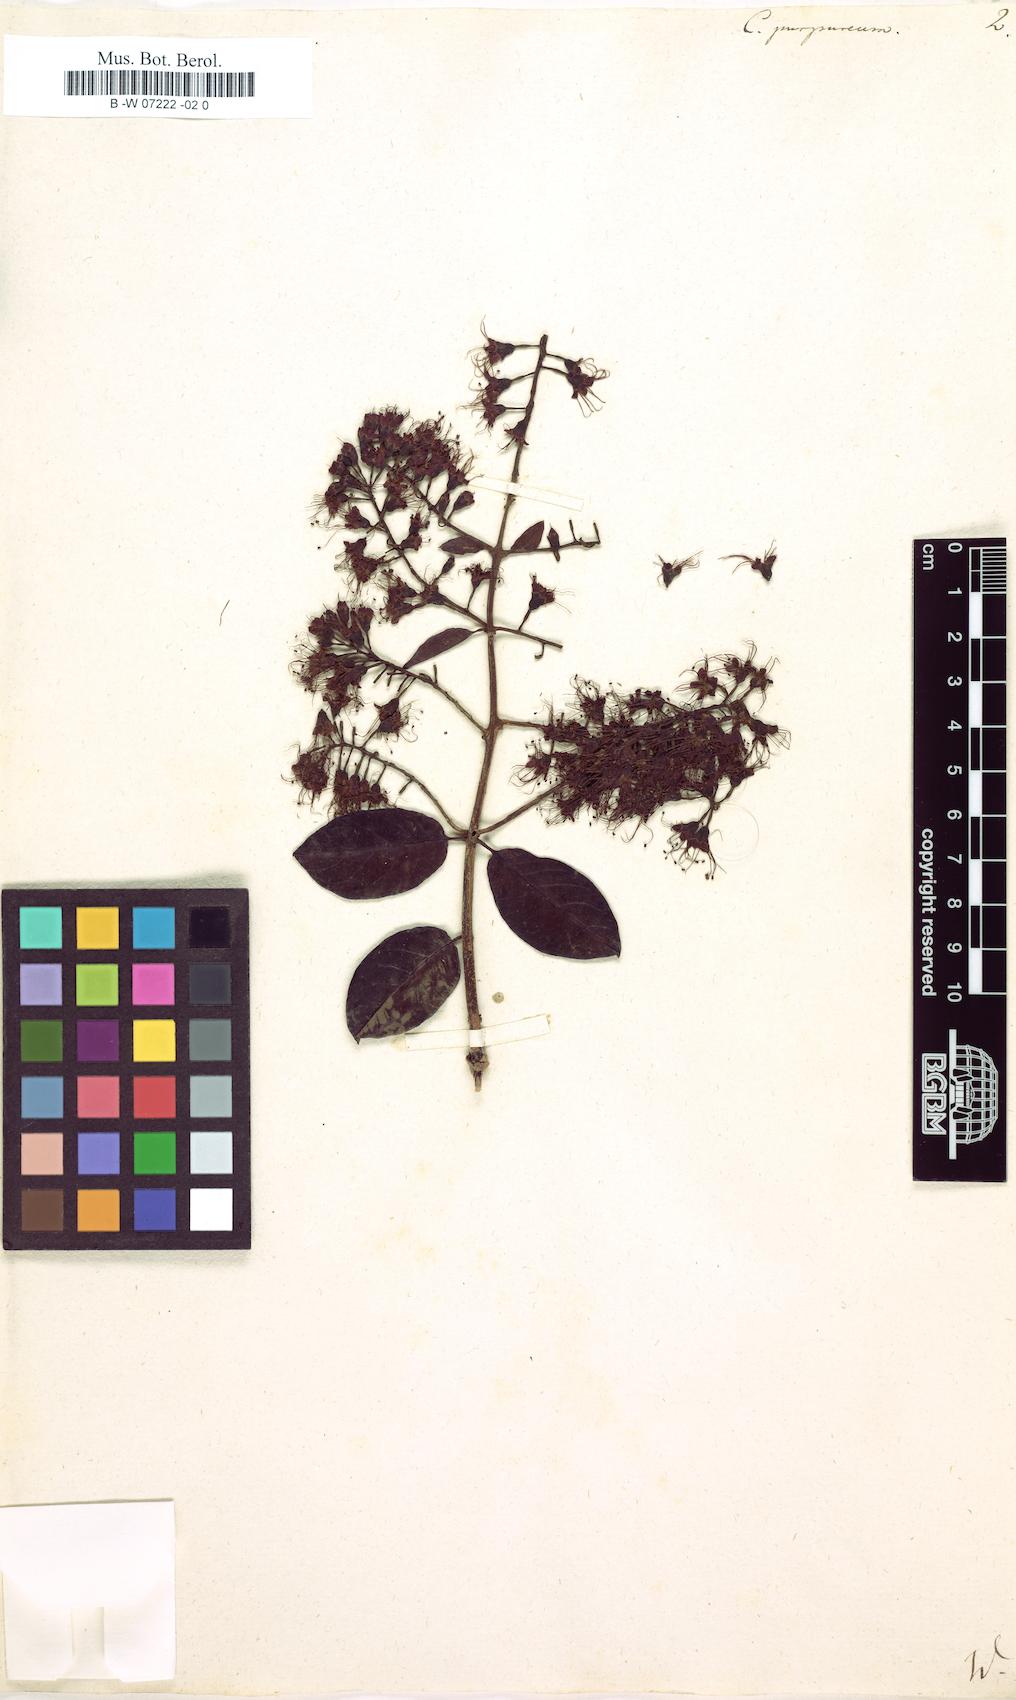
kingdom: Plantae
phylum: Tracheophyta
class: Magnoliopsida
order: Myrtales
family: Combretaceae
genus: Combretum
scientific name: Combretum spinosum
